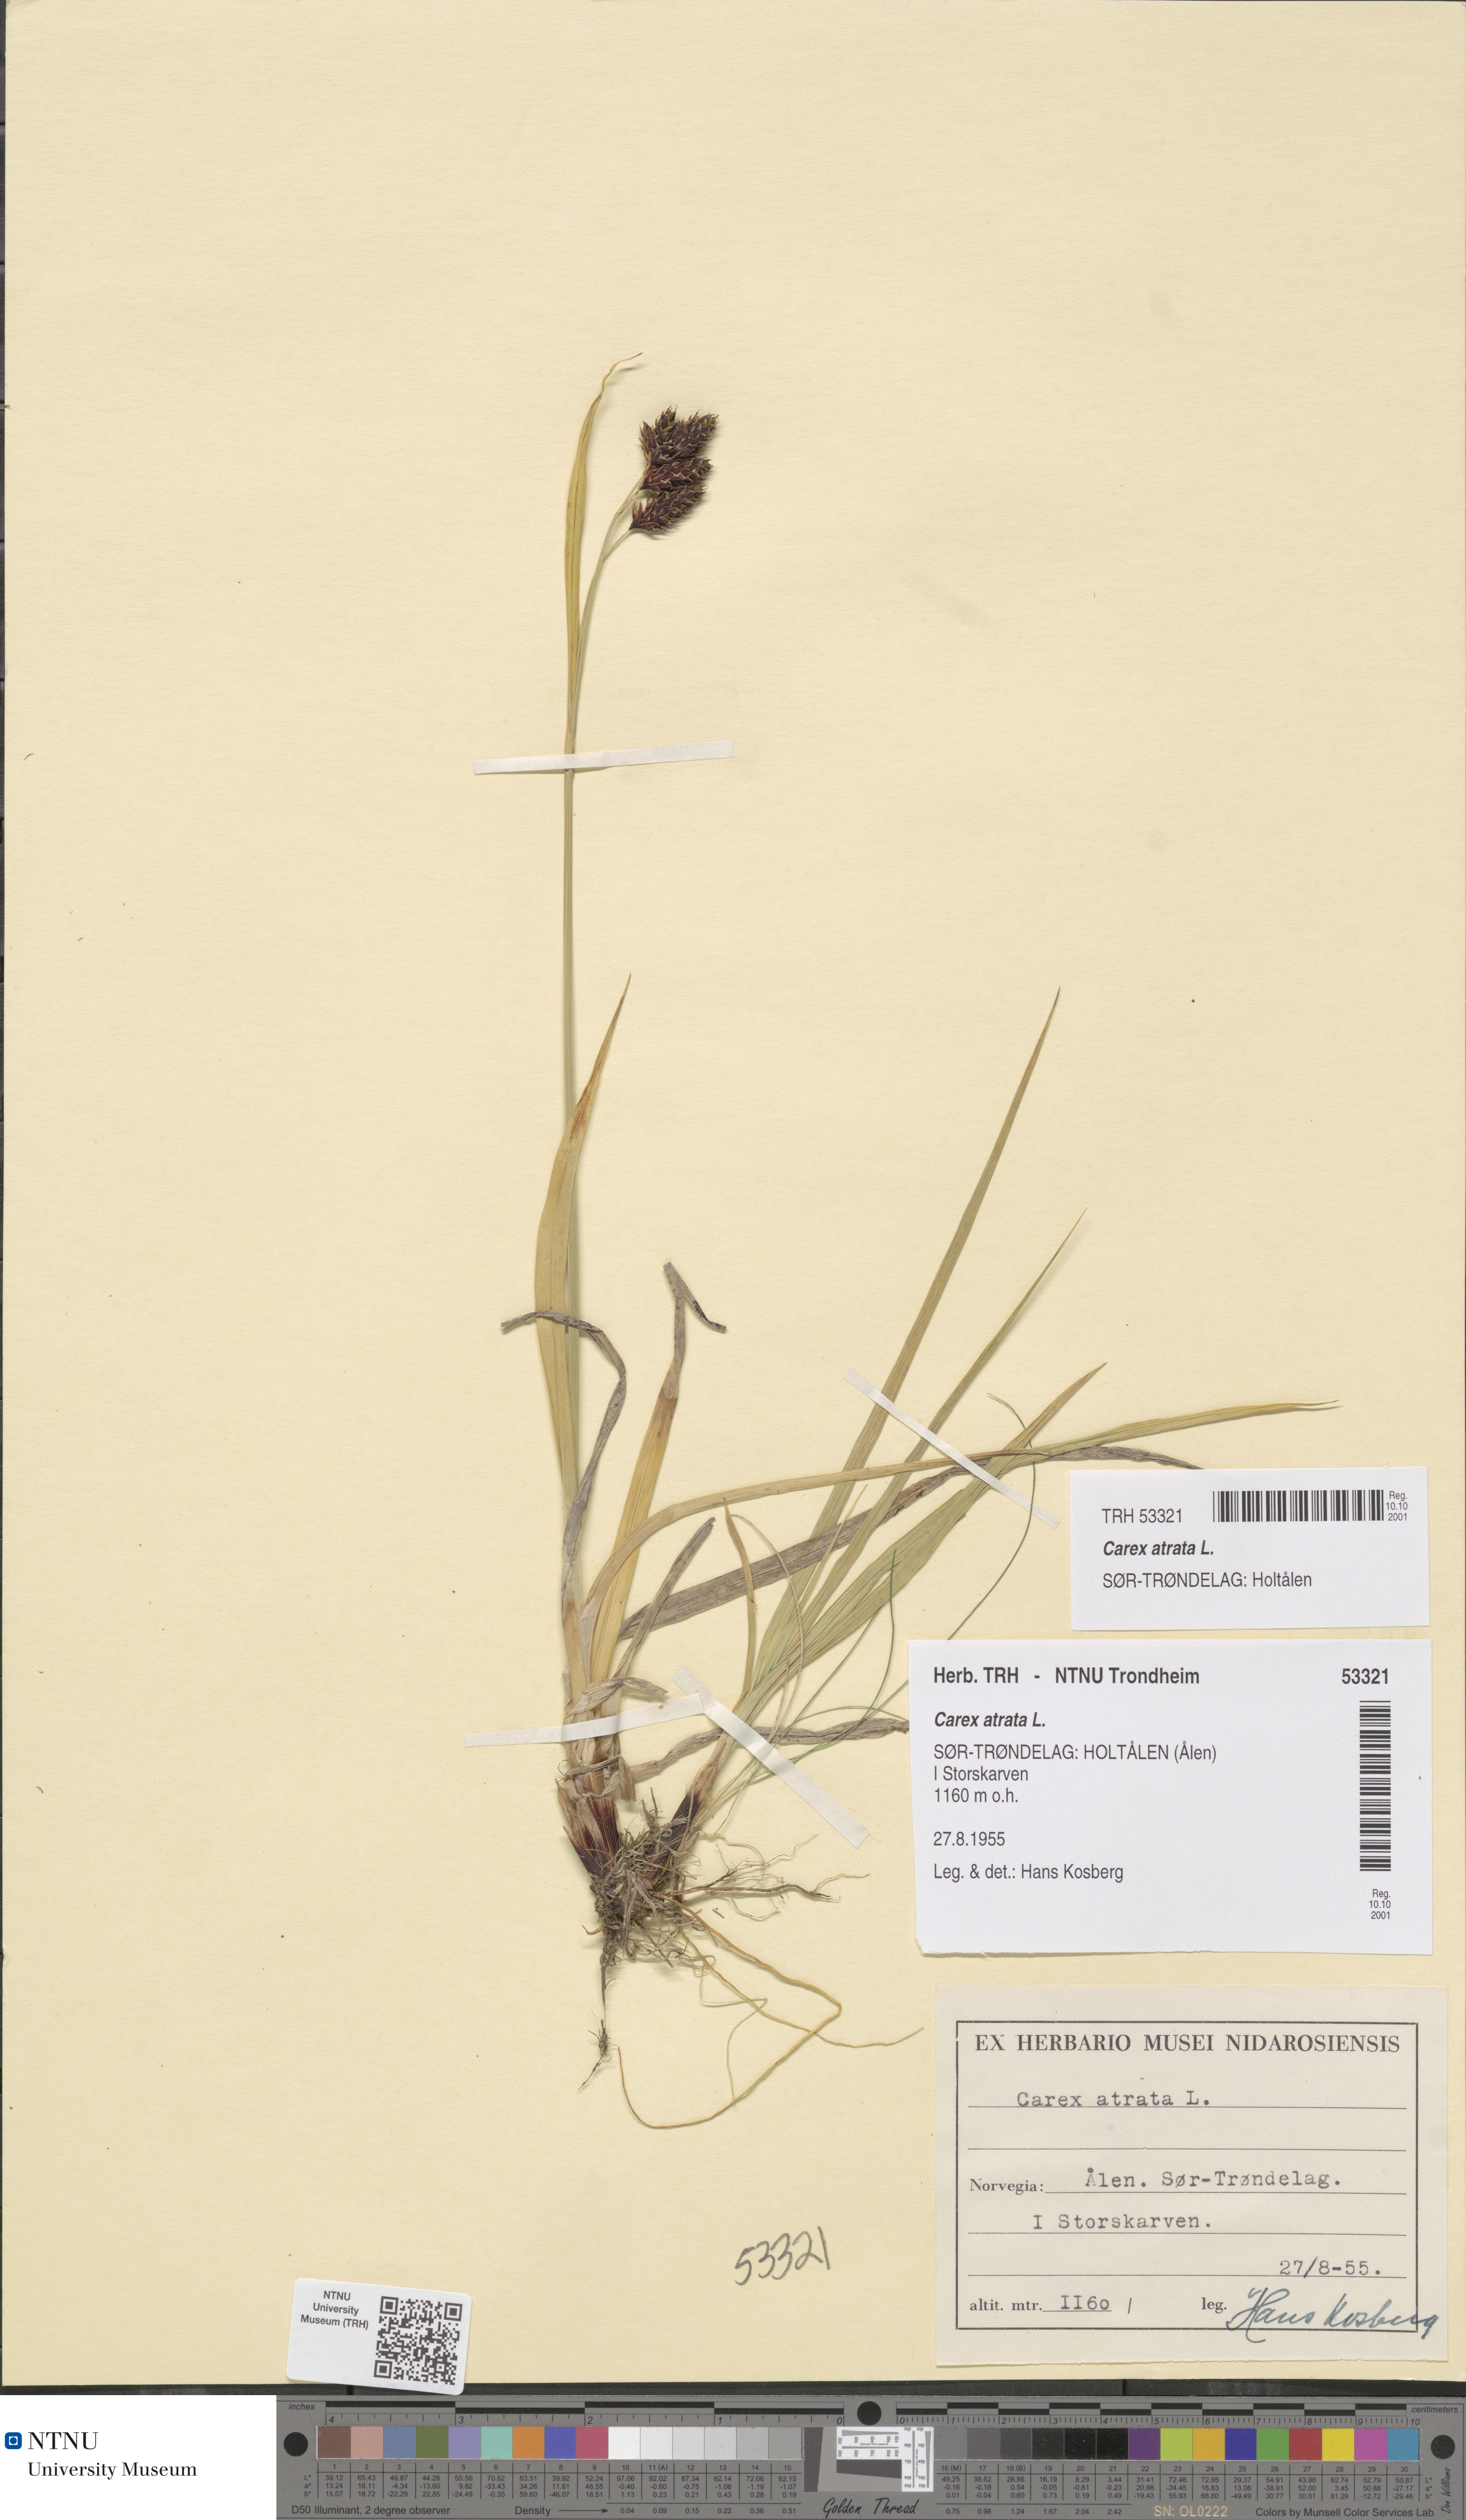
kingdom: Plantae
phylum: Tracheophyta
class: Liliopsida
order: Poales
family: Cyperaceae
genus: Carex
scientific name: Carex atrata
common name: Black alpine sedge
